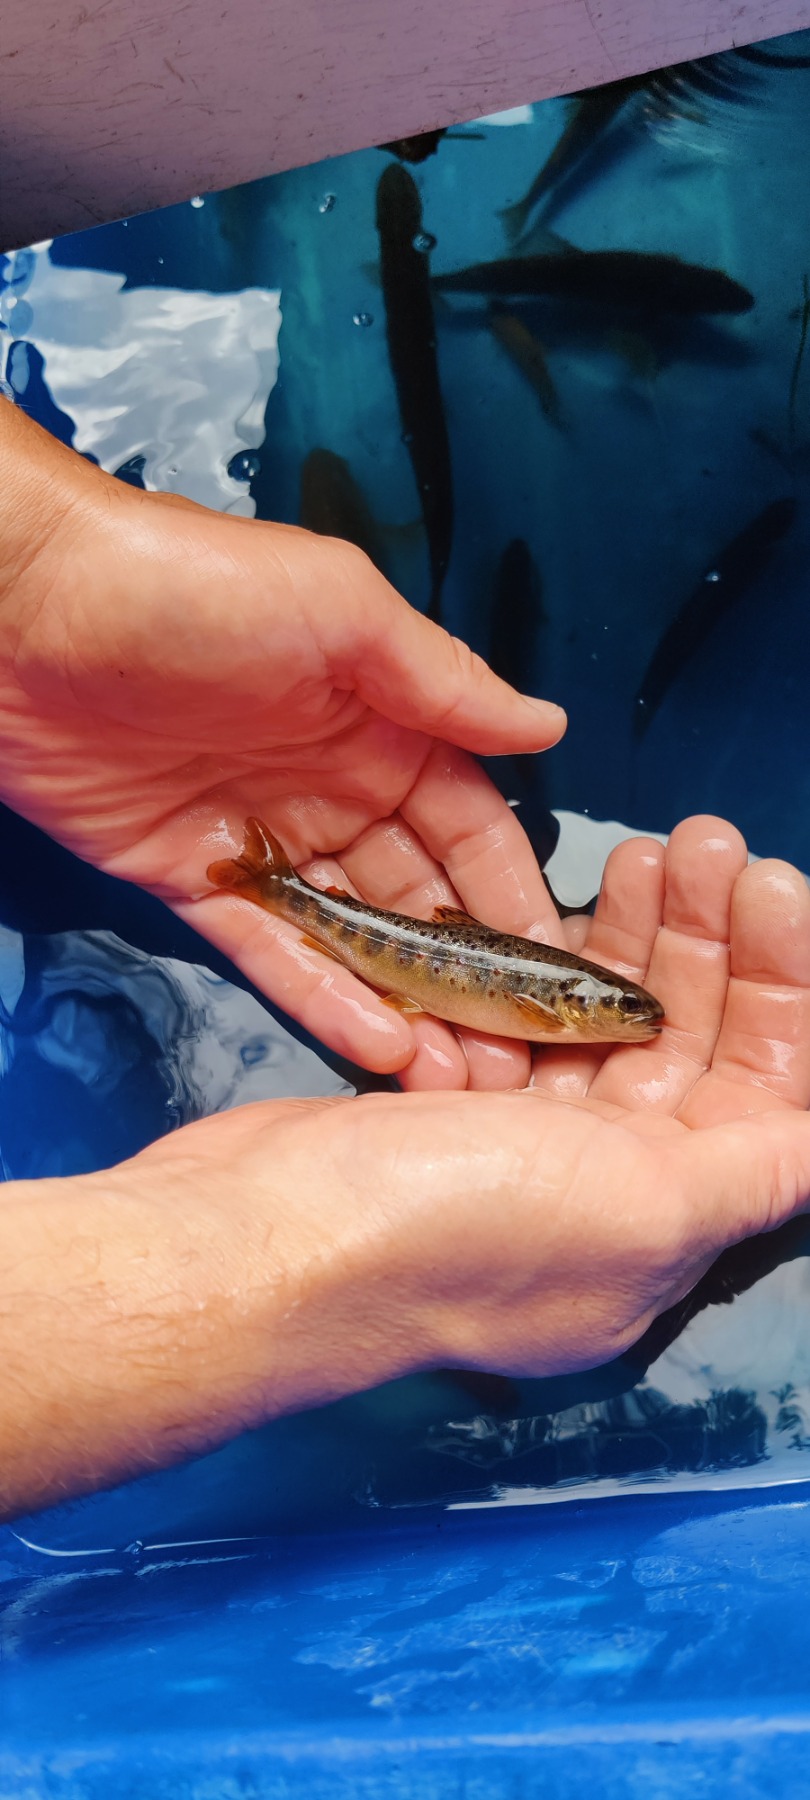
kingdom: Animalia
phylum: Chordata
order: Salmoniformes
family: Salmonidae
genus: Salmo
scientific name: Salmo trutta
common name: Ørred
